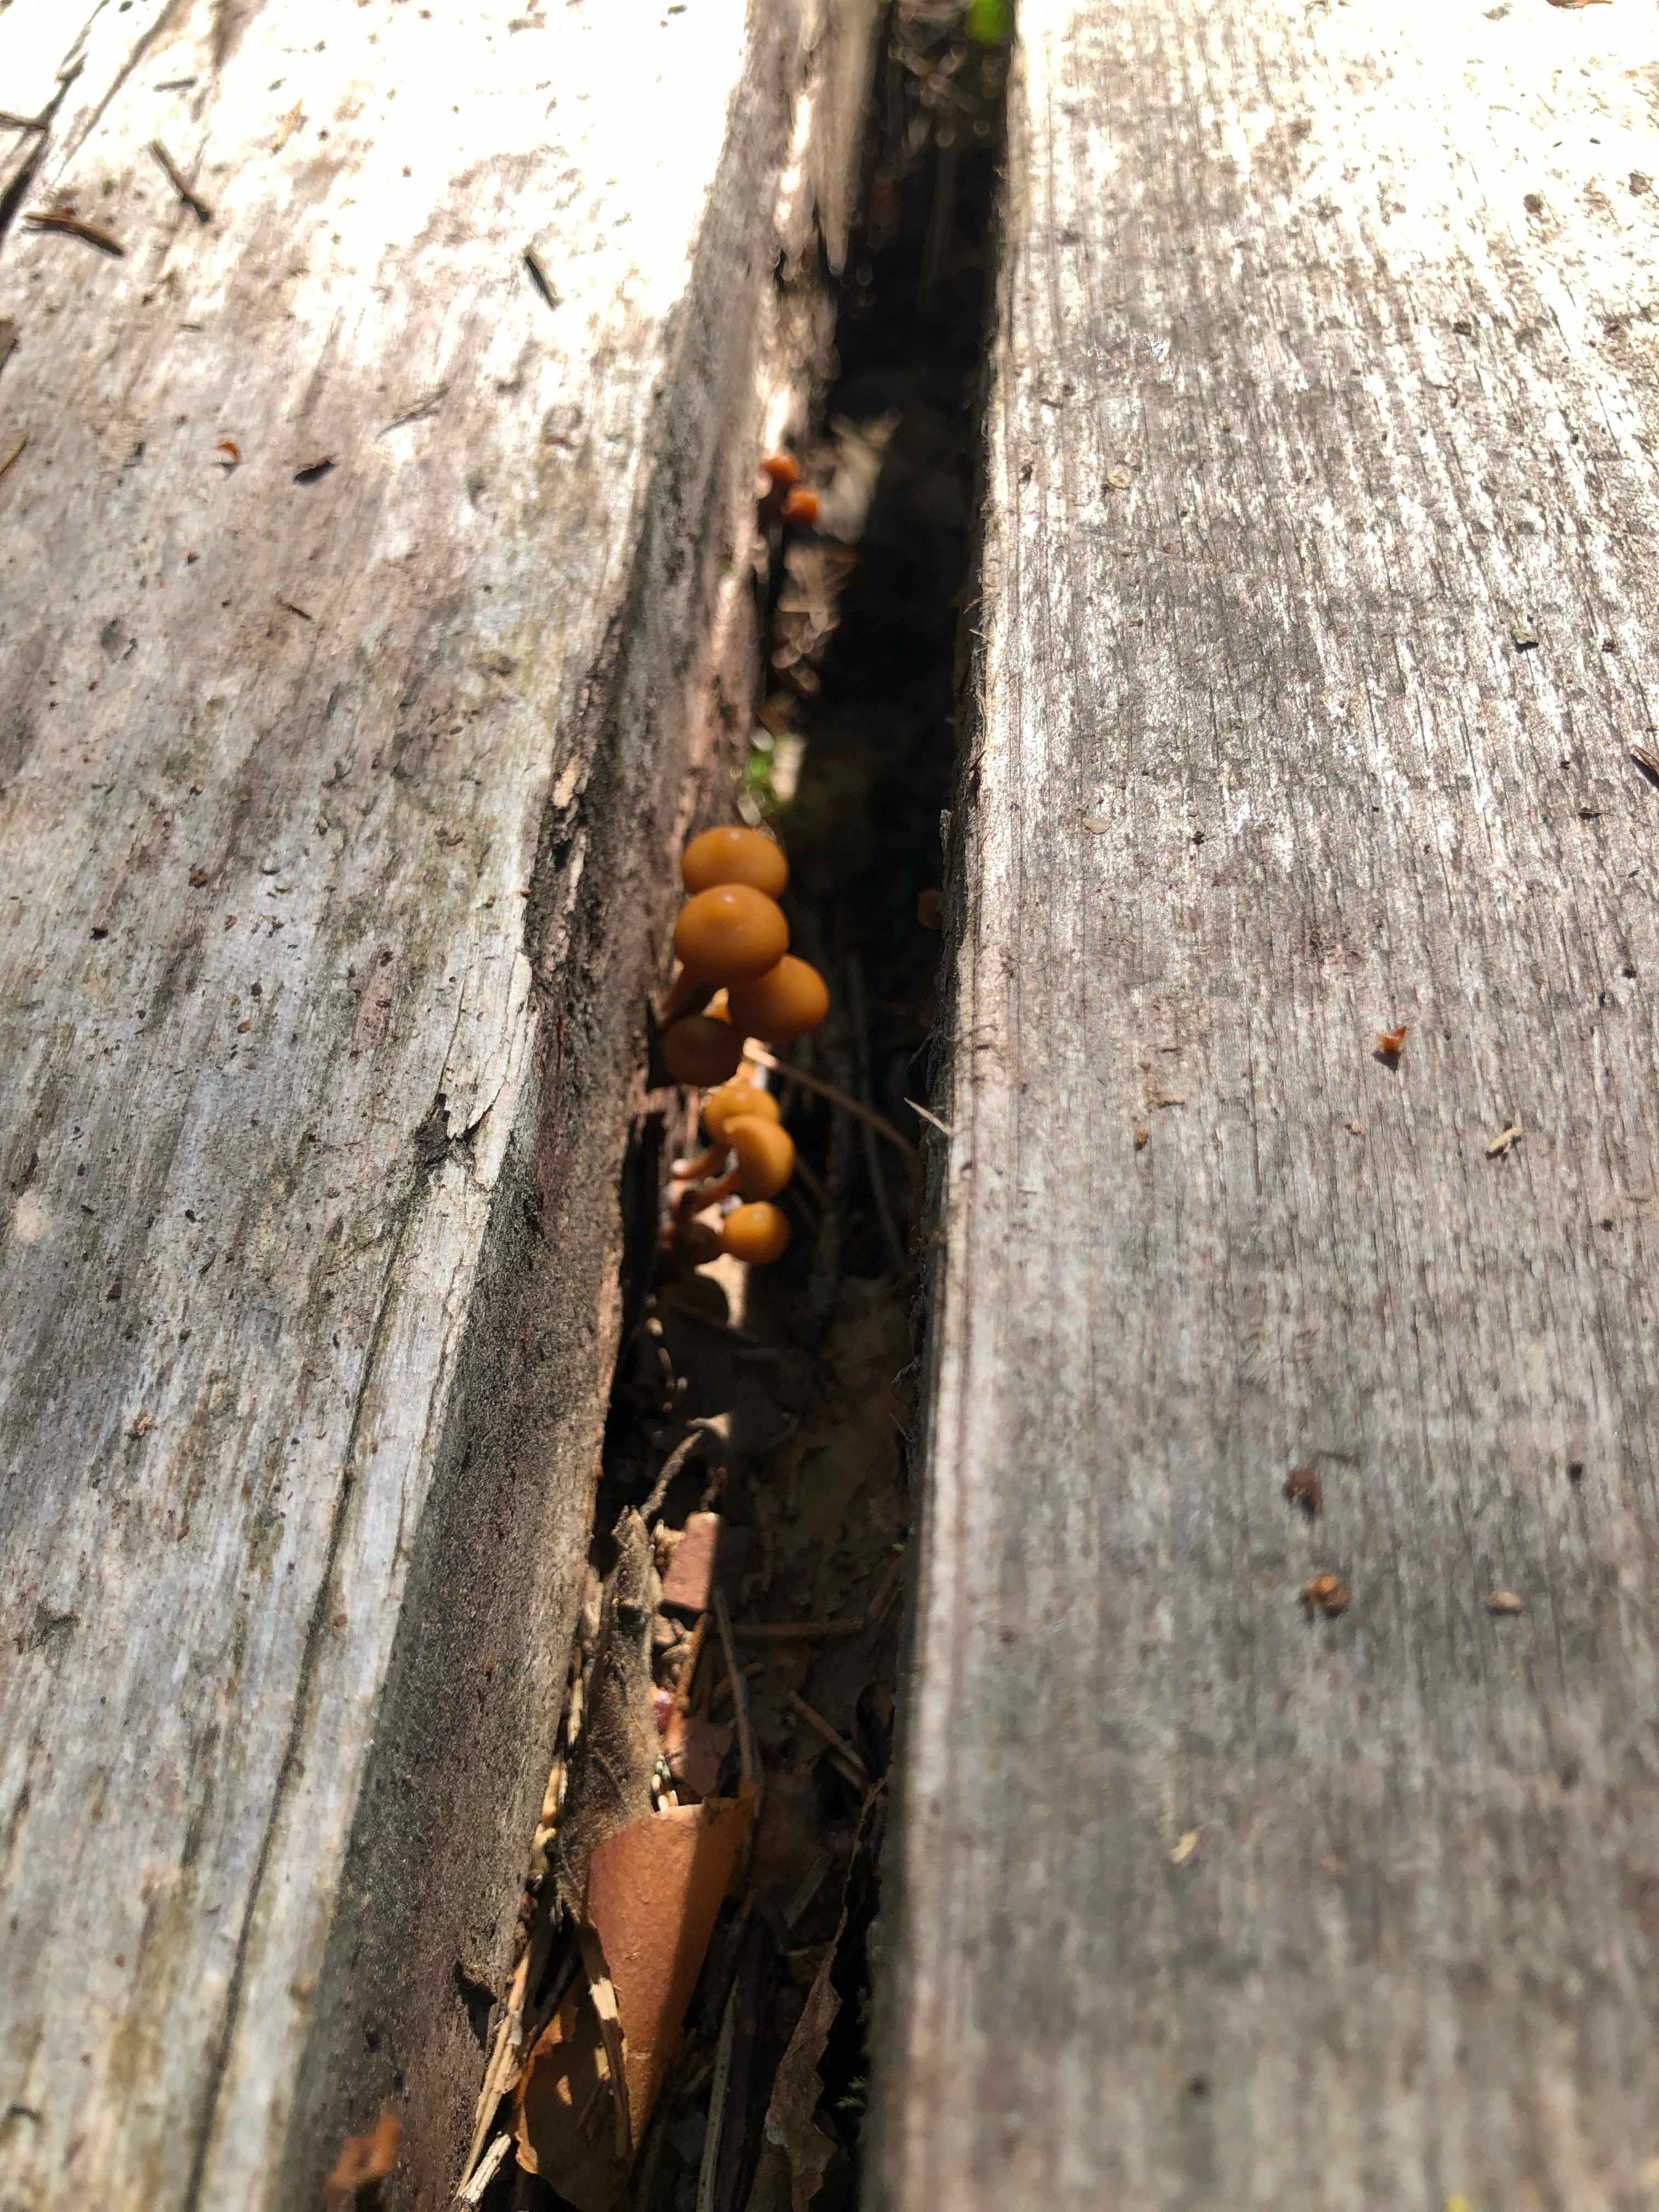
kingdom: Fungi
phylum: Basidiomycota
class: Agaricomycetes
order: Agaricales
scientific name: Agaricales
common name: champignonordenen
